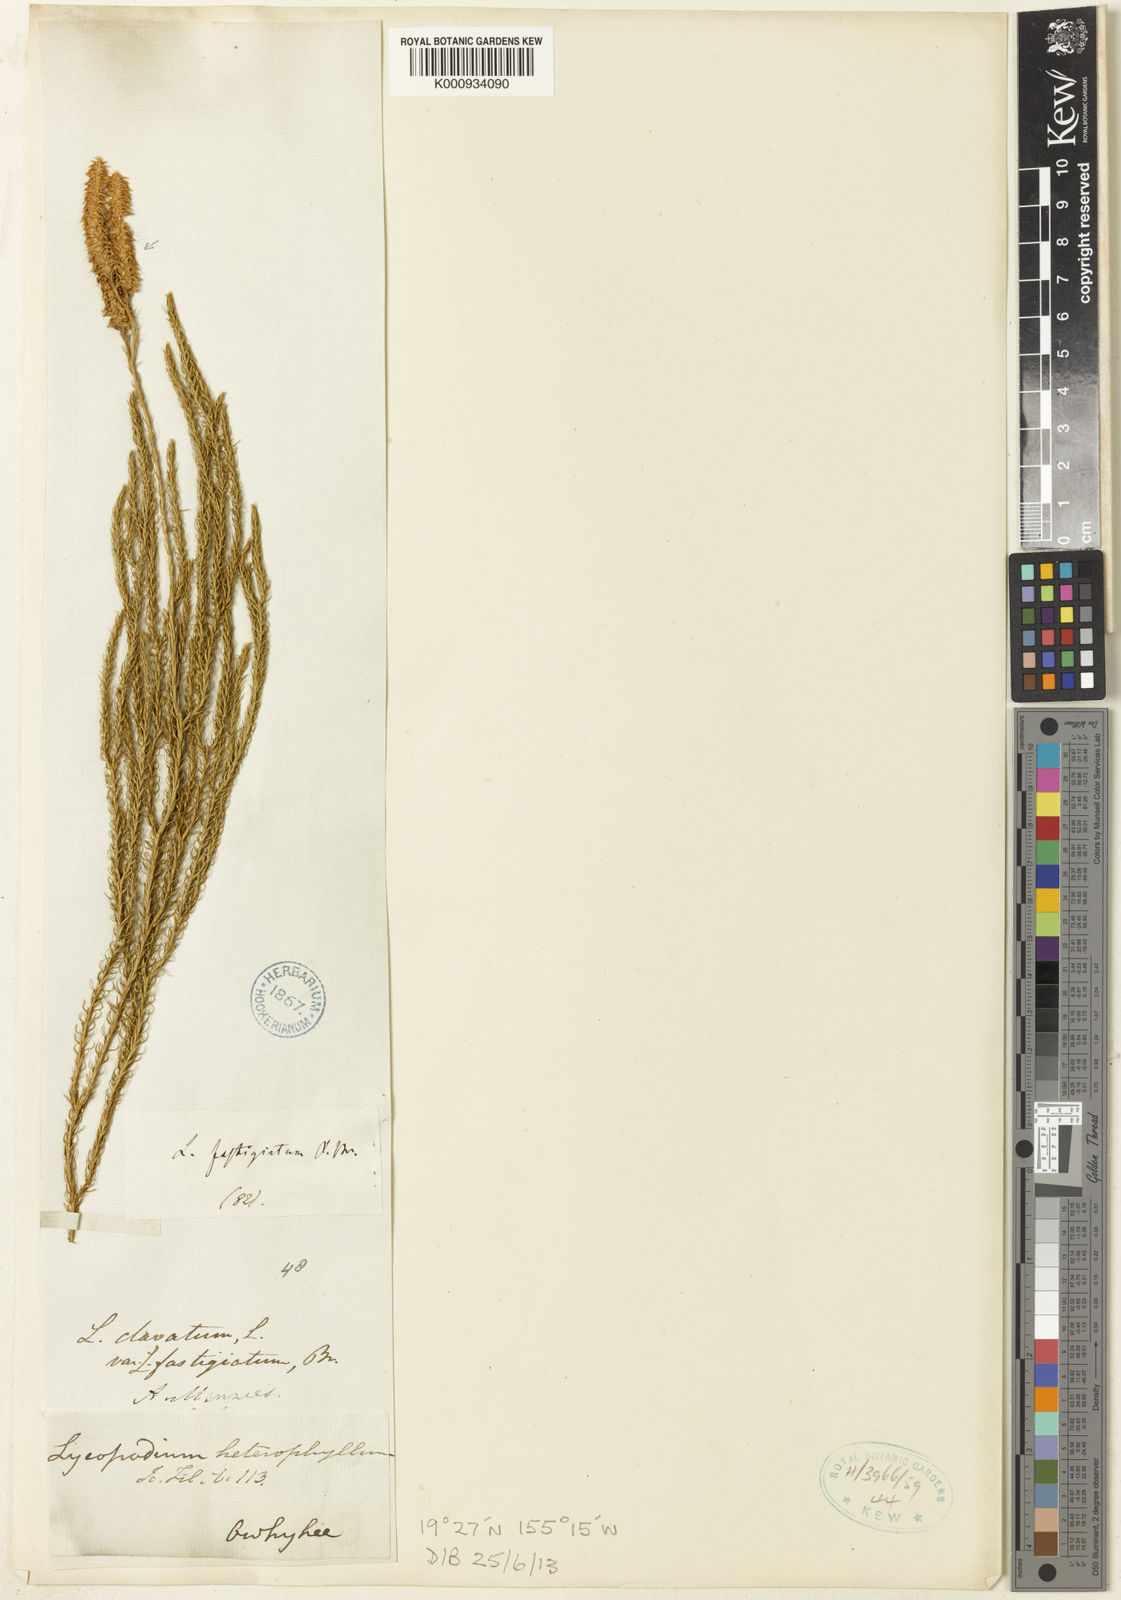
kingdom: Plantae
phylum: Tracheophyta
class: Lycopodiopsida
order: Lycopodiales
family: Lycopodiaceae
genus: Lycopodium
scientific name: Lycopodium
